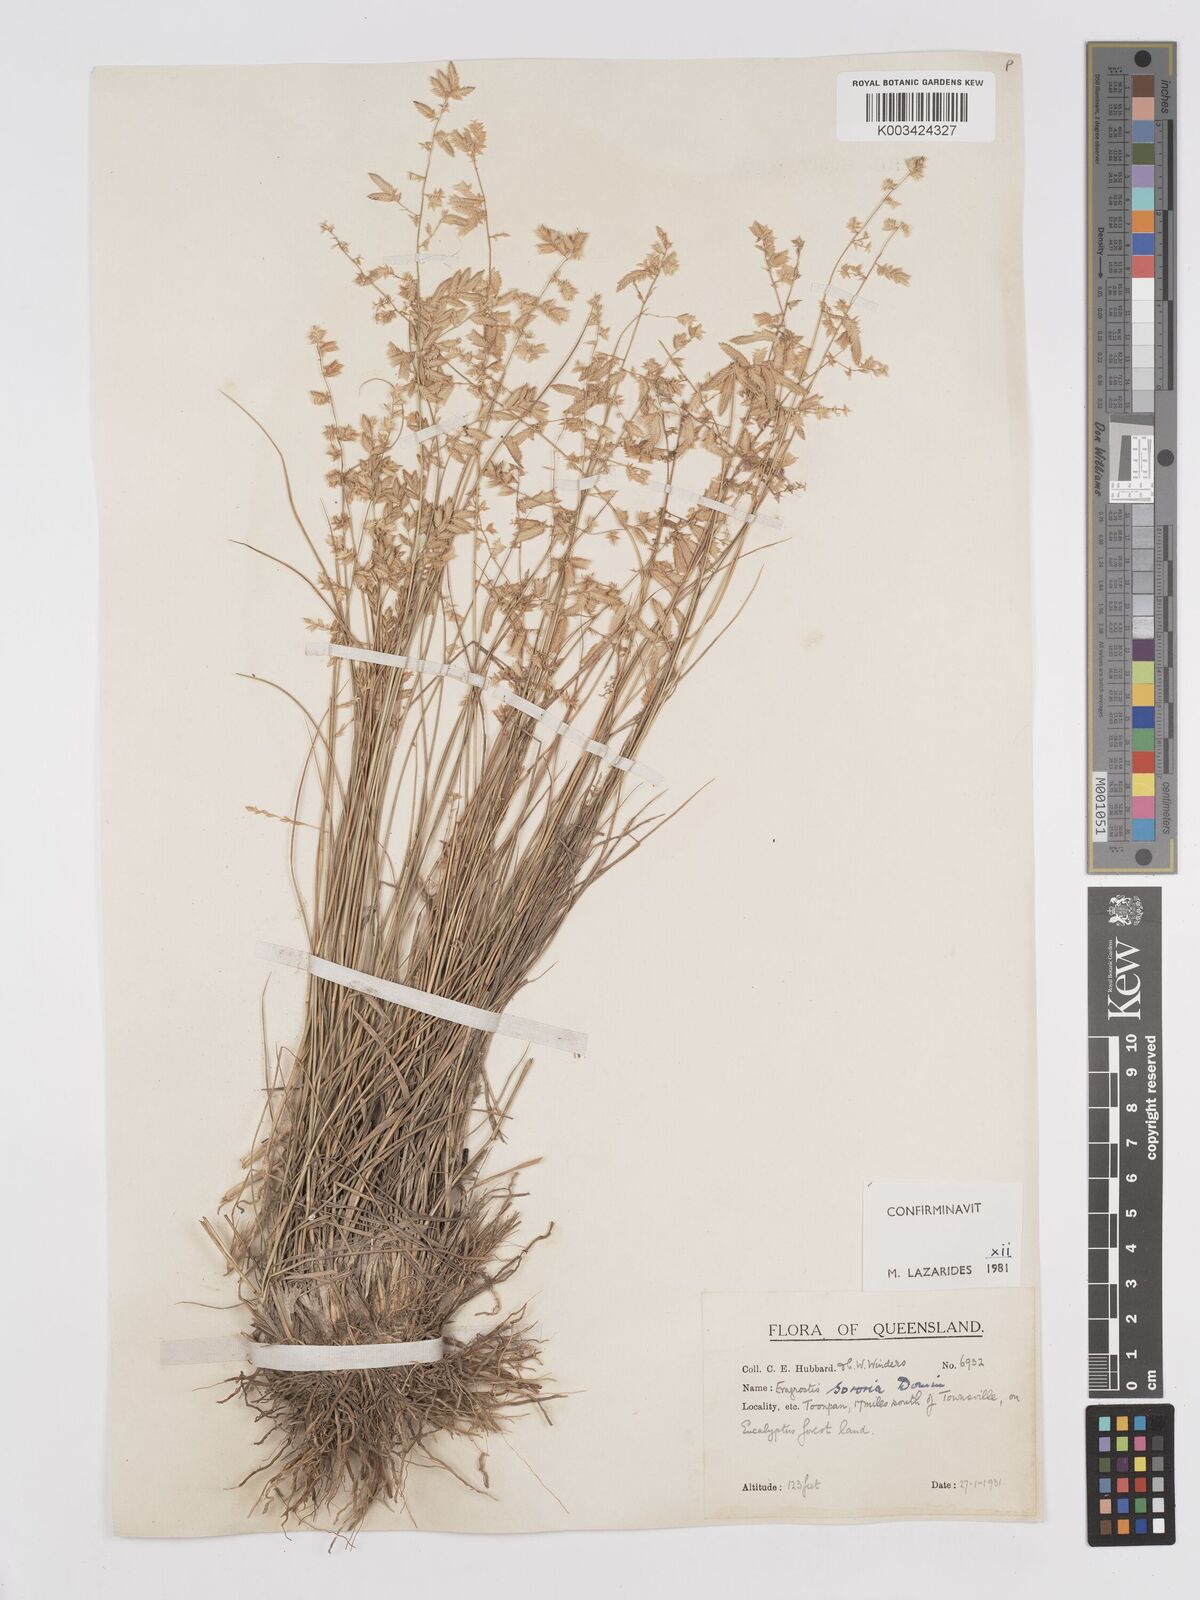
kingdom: Plantae
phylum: Tracheophyta
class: Liliopsida
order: Poales
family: Poaceae
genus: Eragrostis
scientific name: Eragrostis sororia
